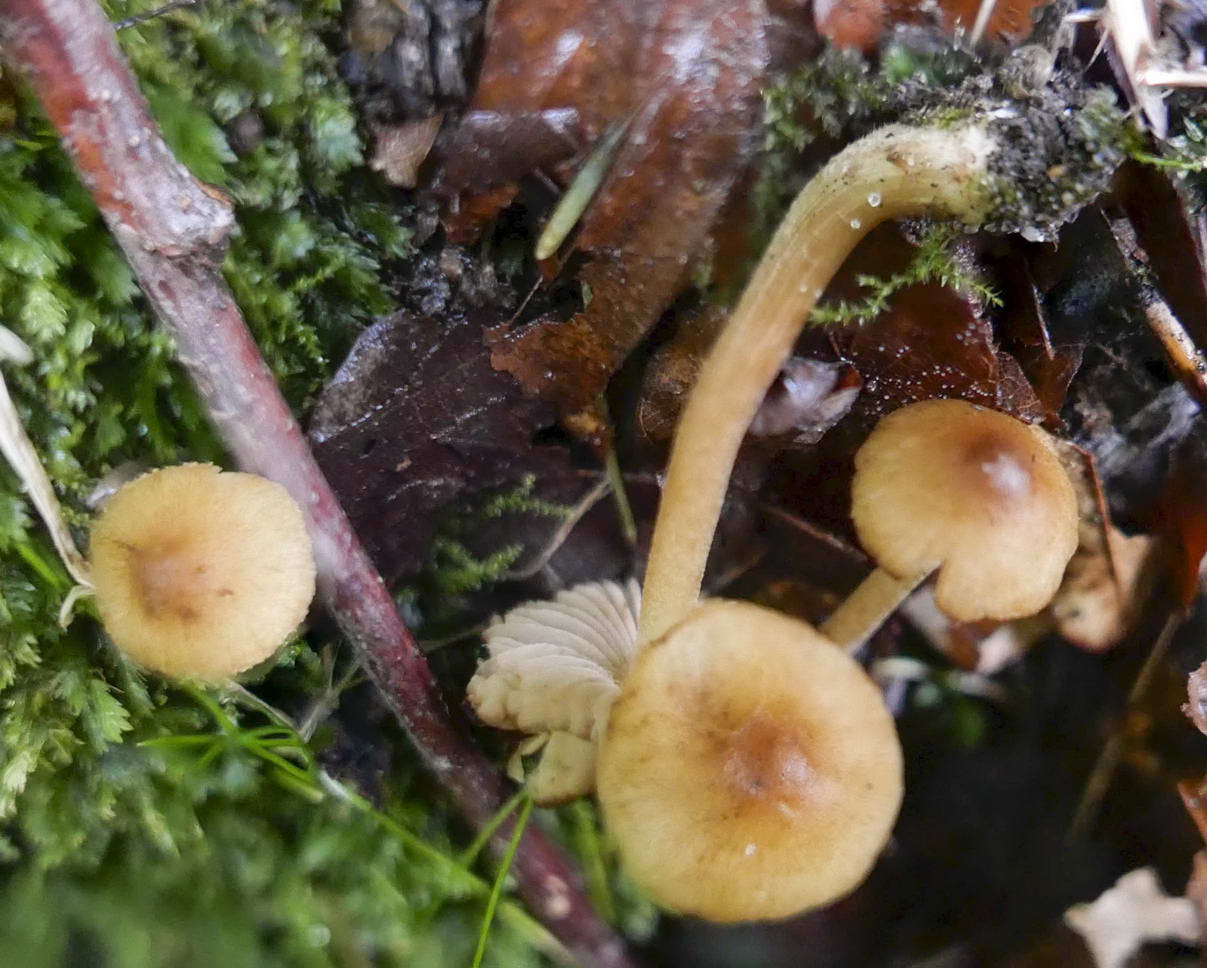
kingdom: Fungi
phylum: Basidiomycota
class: Agaricomycetes
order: Agaricales
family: Inocybaceae
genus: Inocybe
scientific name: Inocybe
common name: trævlhat
